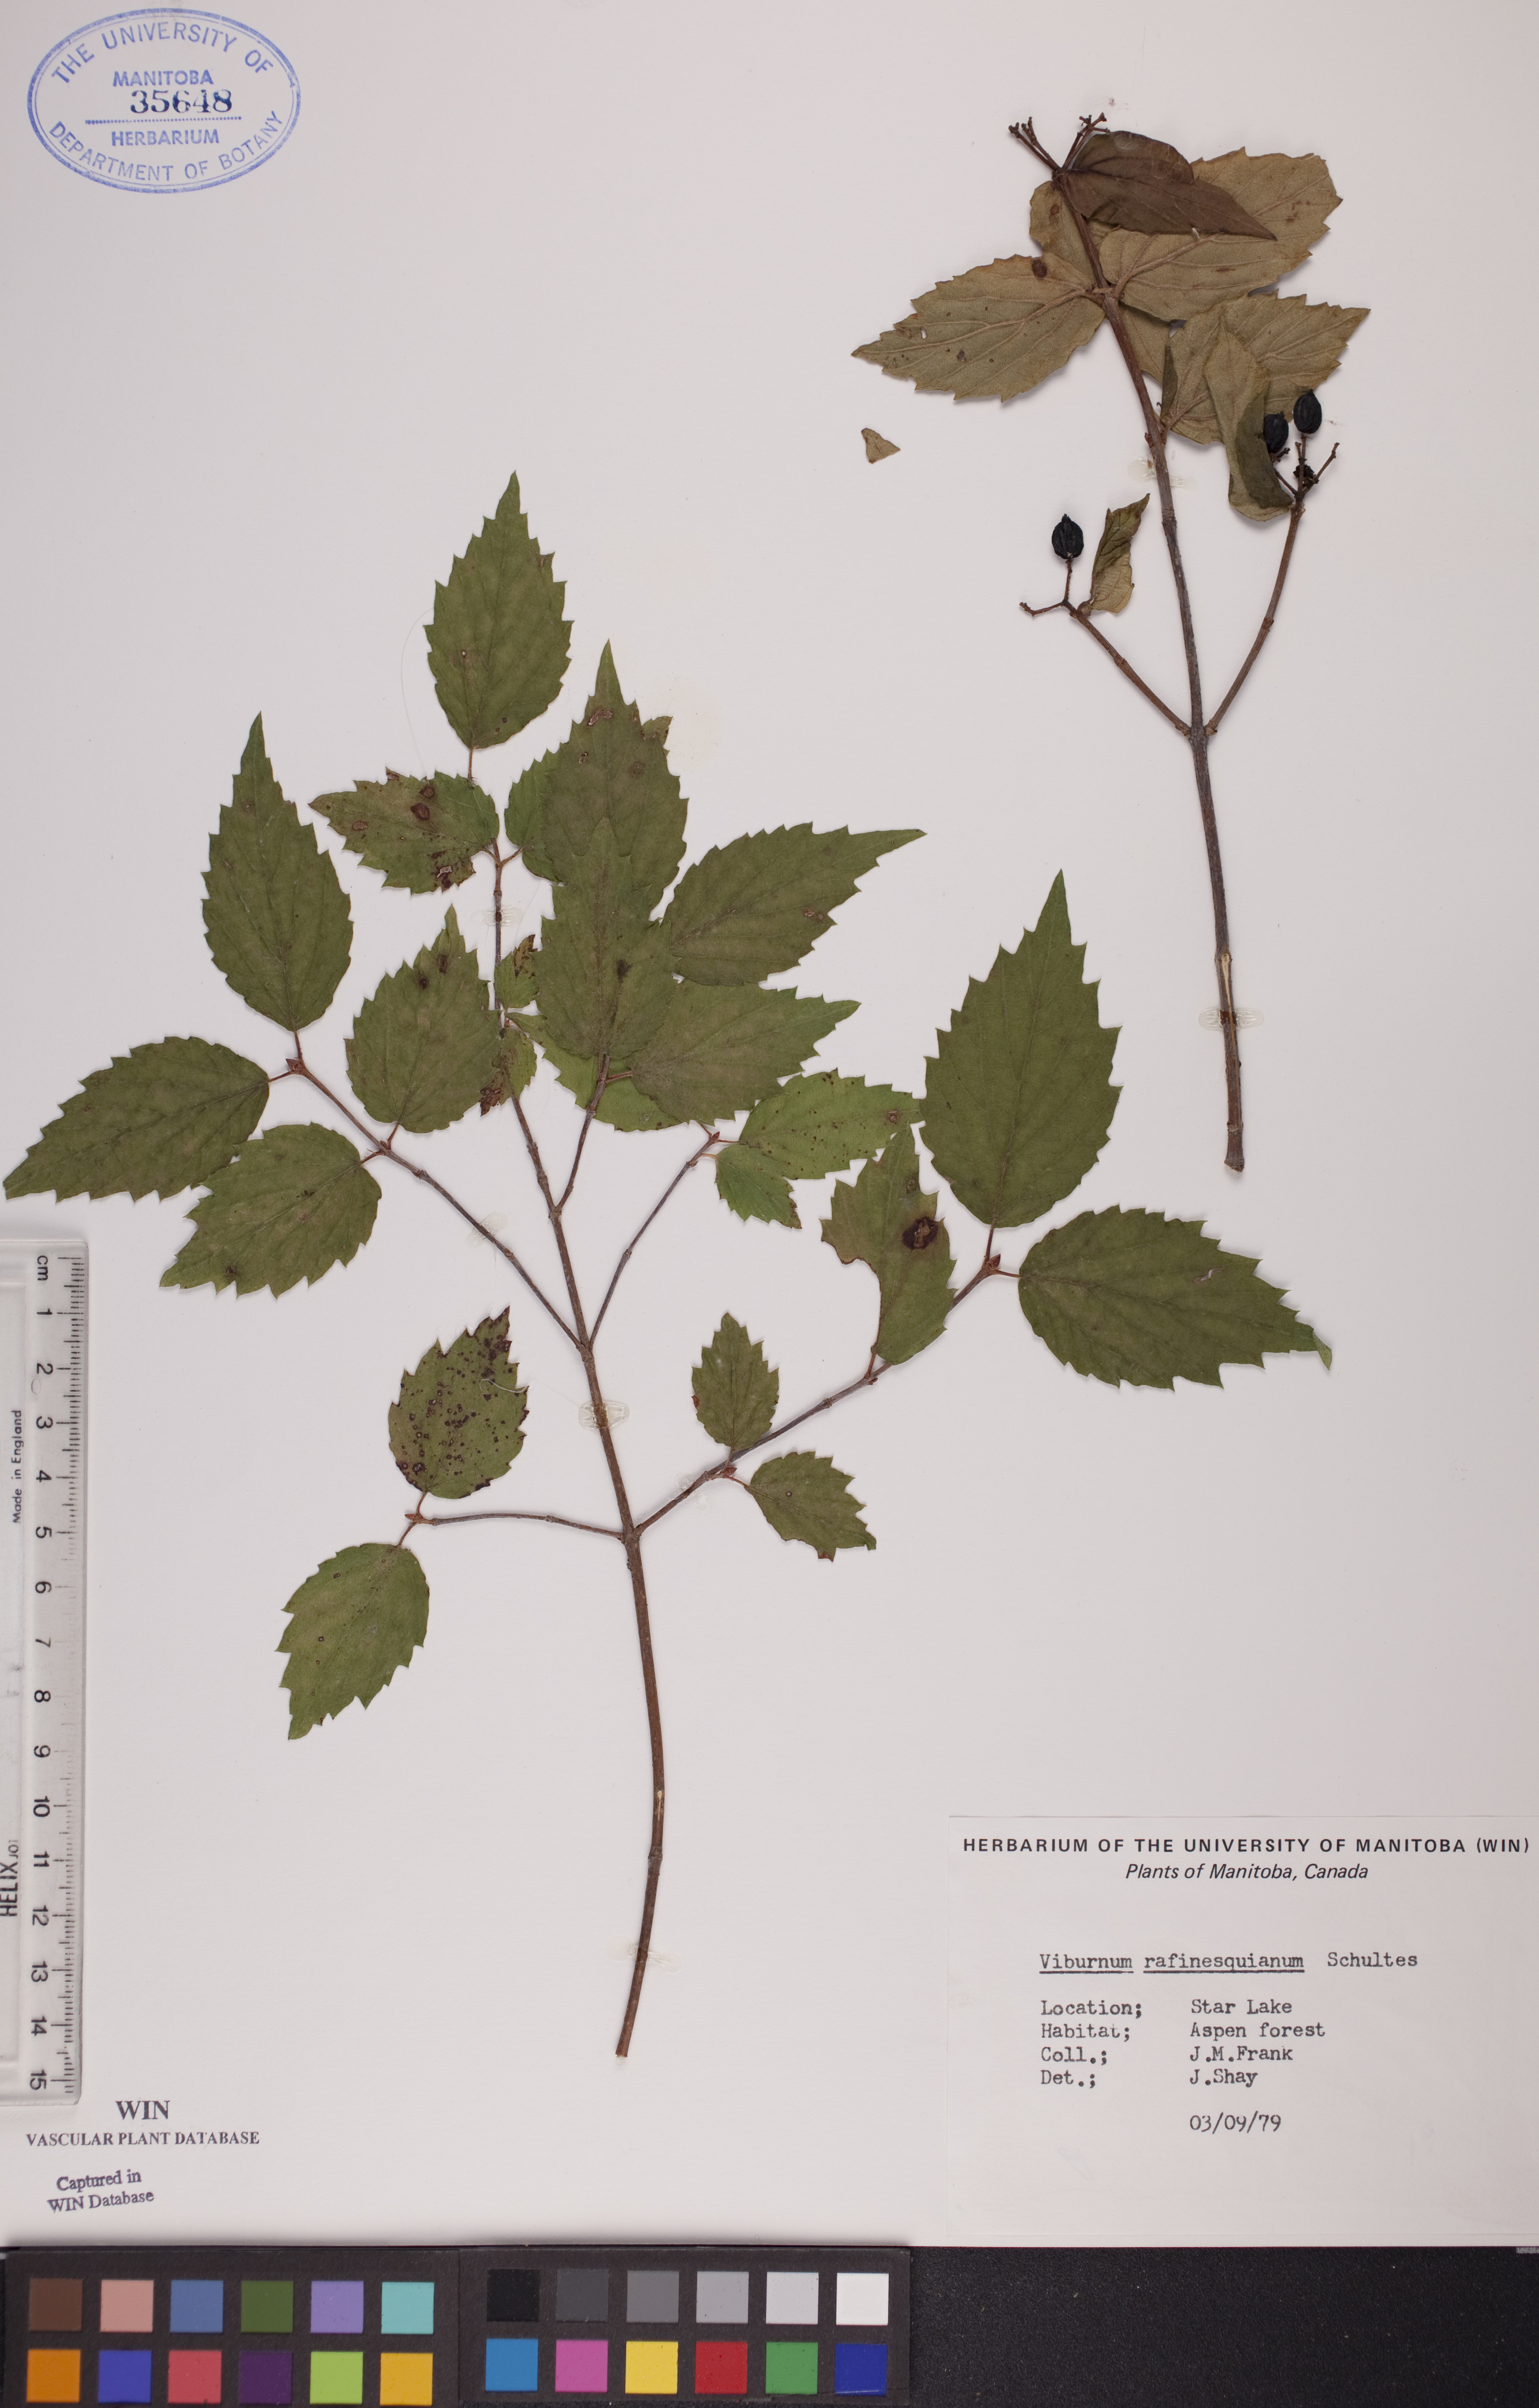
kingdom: Plantae
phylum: Tracheophyta
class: Magnoliopsida
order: Dipsacales
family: Viburnaceae
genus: Viburnum
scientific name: Viburnum rafinesquianum
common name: Downy arrow-wood
